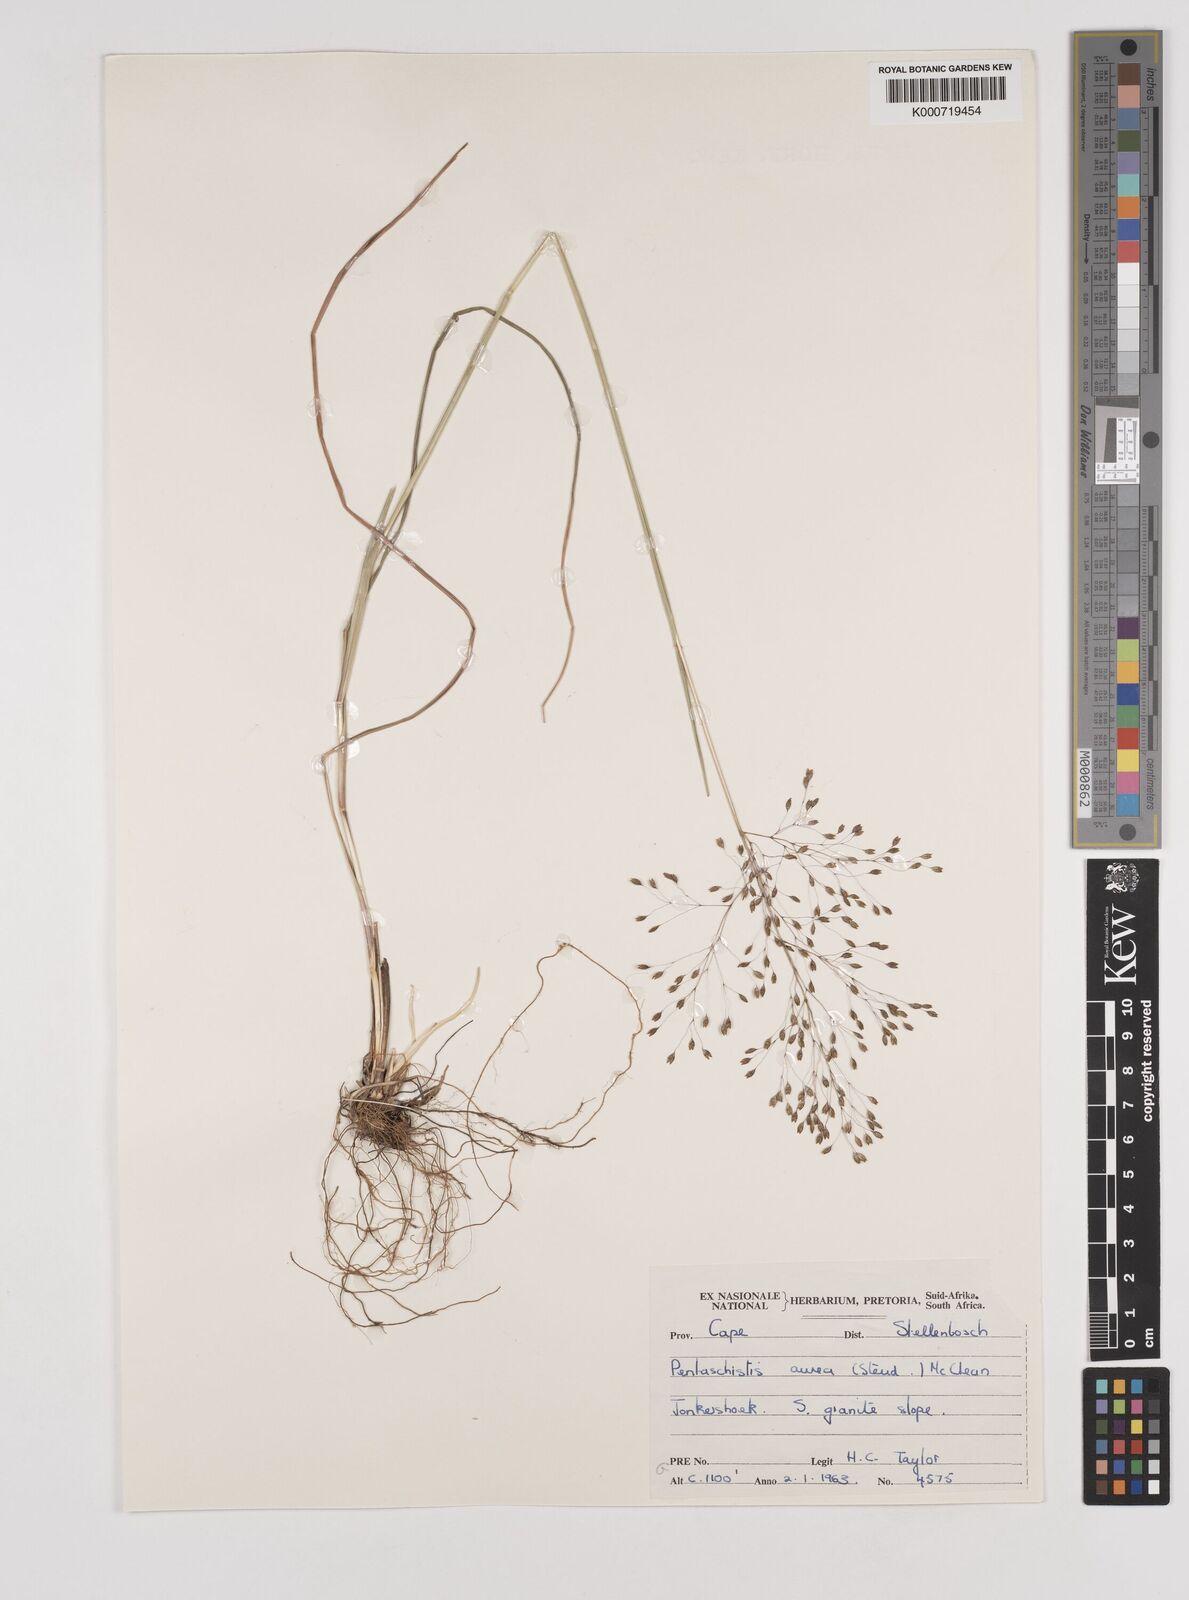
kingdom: Plantae
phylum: Tracheophyta
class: Liliopsida
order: Poales
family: Poaceae
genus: Pentameris
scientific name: Pentameris aurea
